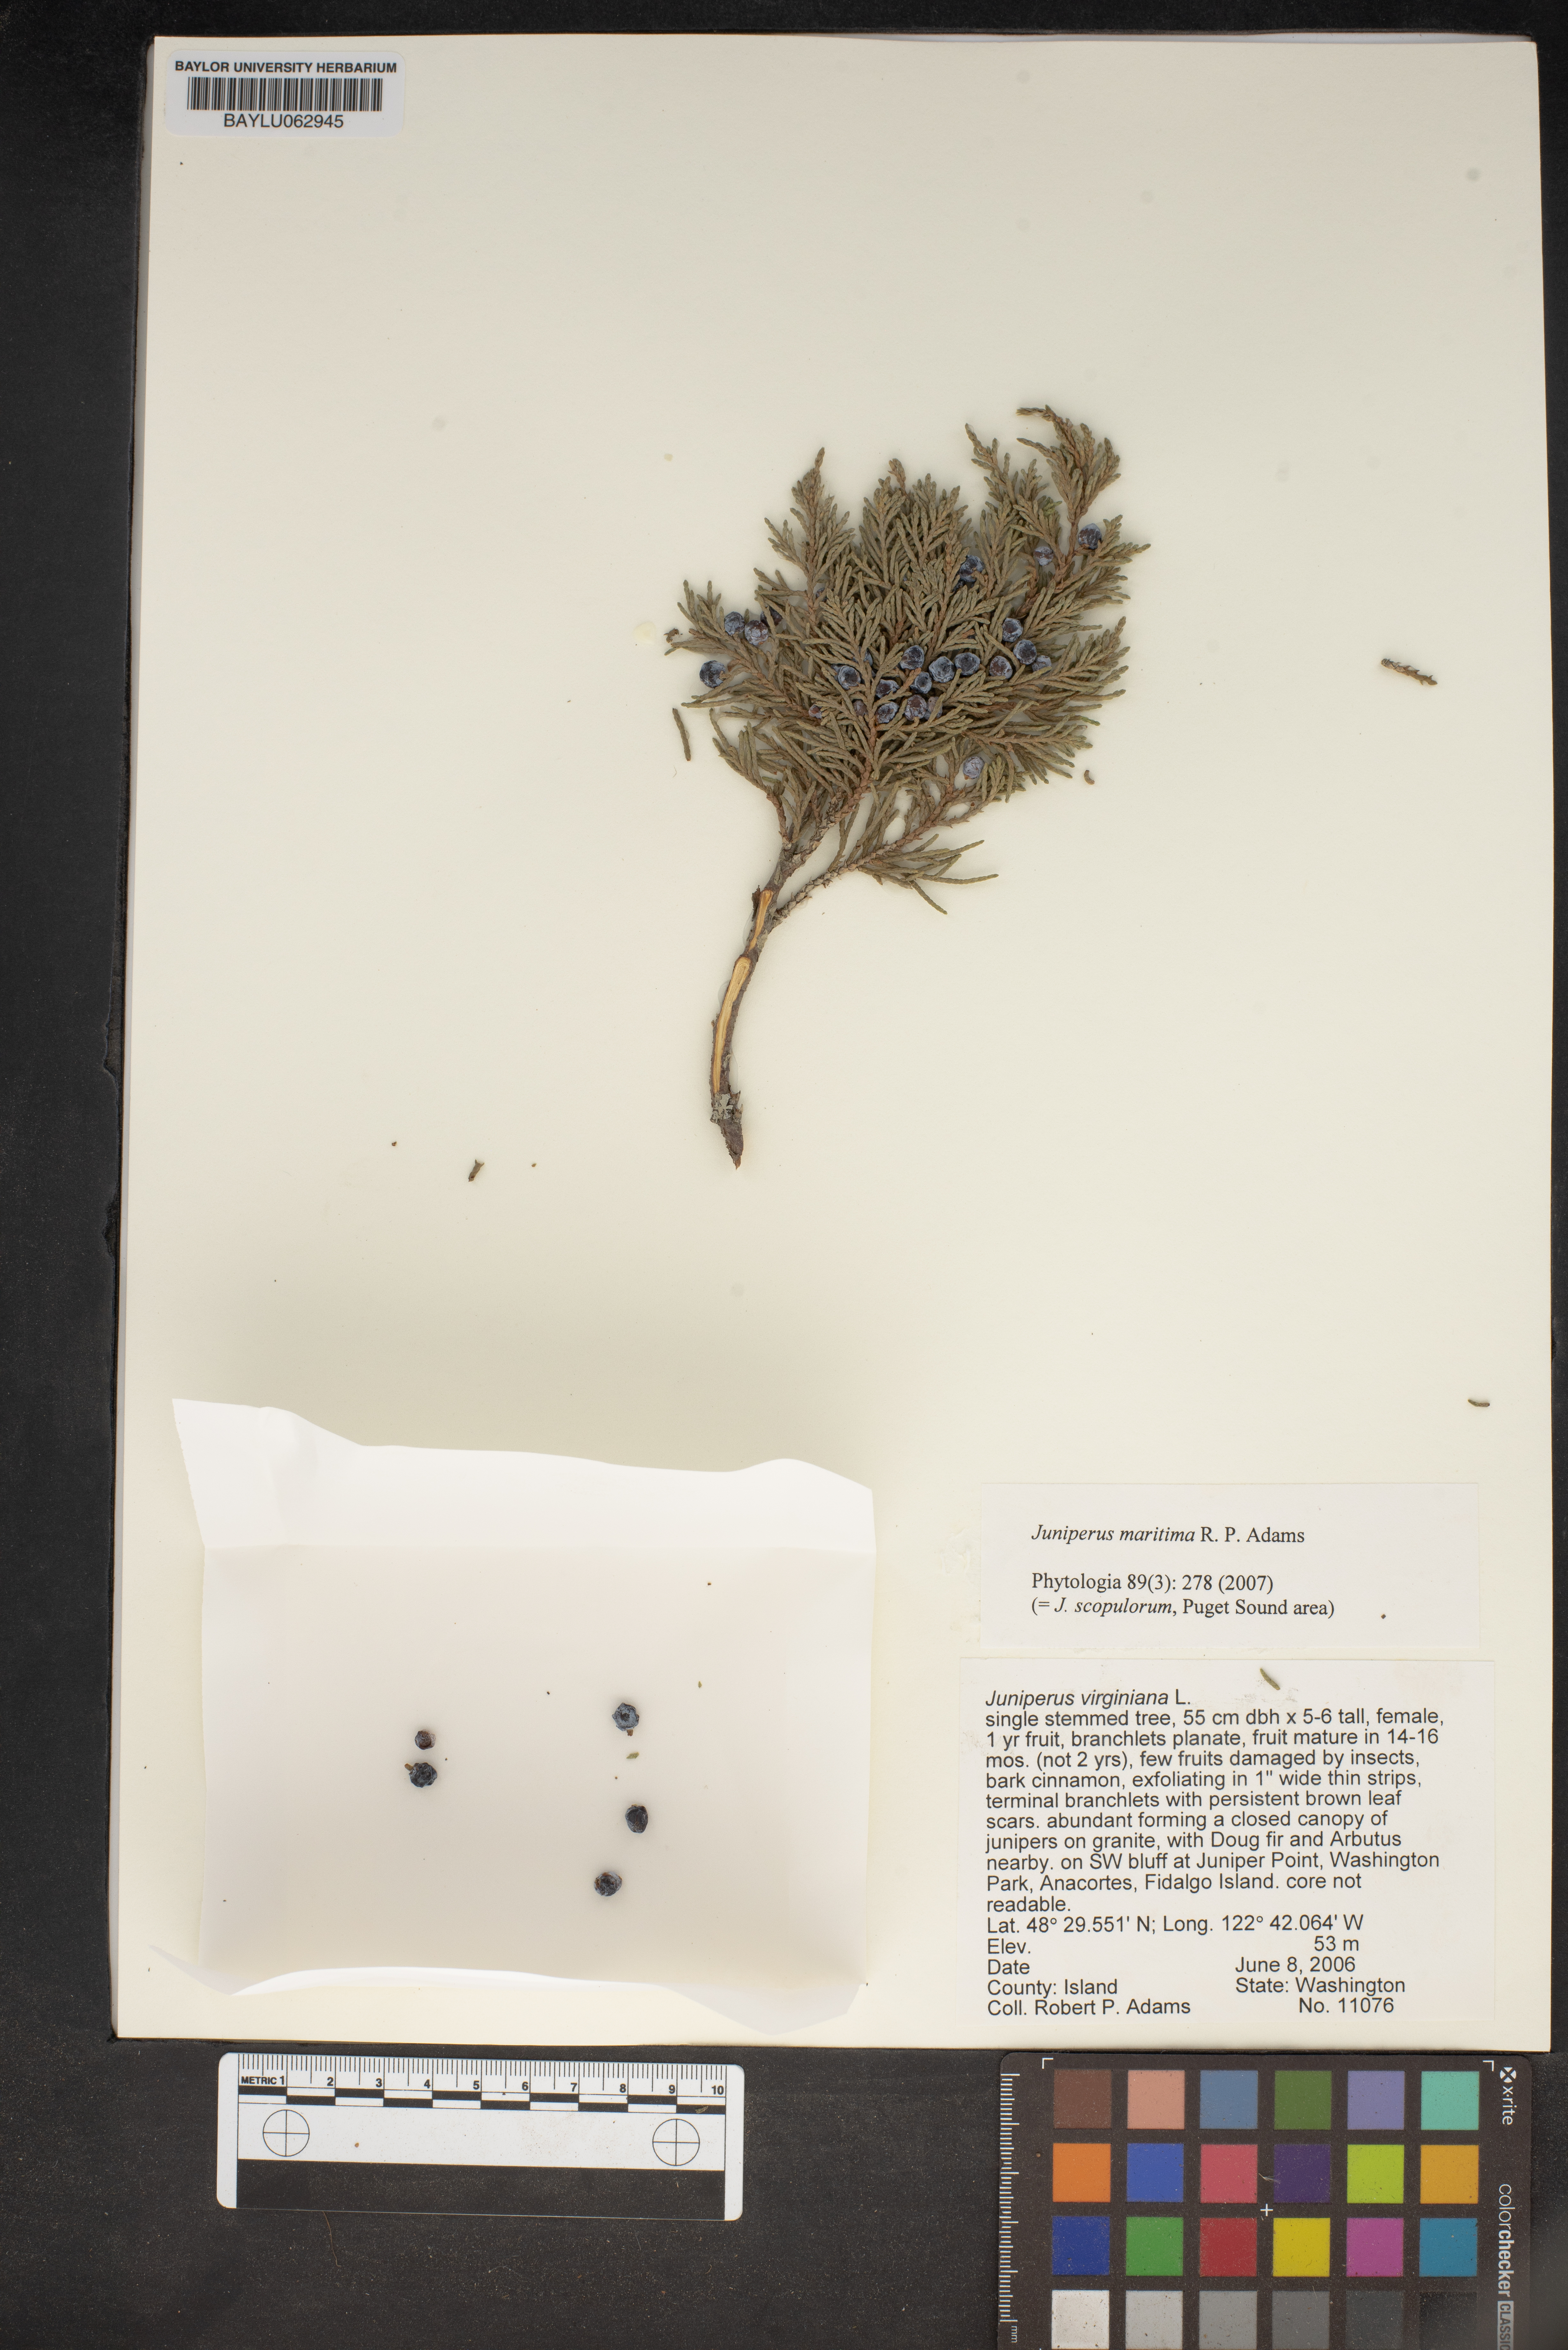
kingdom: Plantae
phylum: Tracheophyta
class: Pinopsida
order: Pinales
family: Cupressaceae
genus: Juniperus
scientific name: Juniperus scopulorum
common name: Rocky mountain juniper
